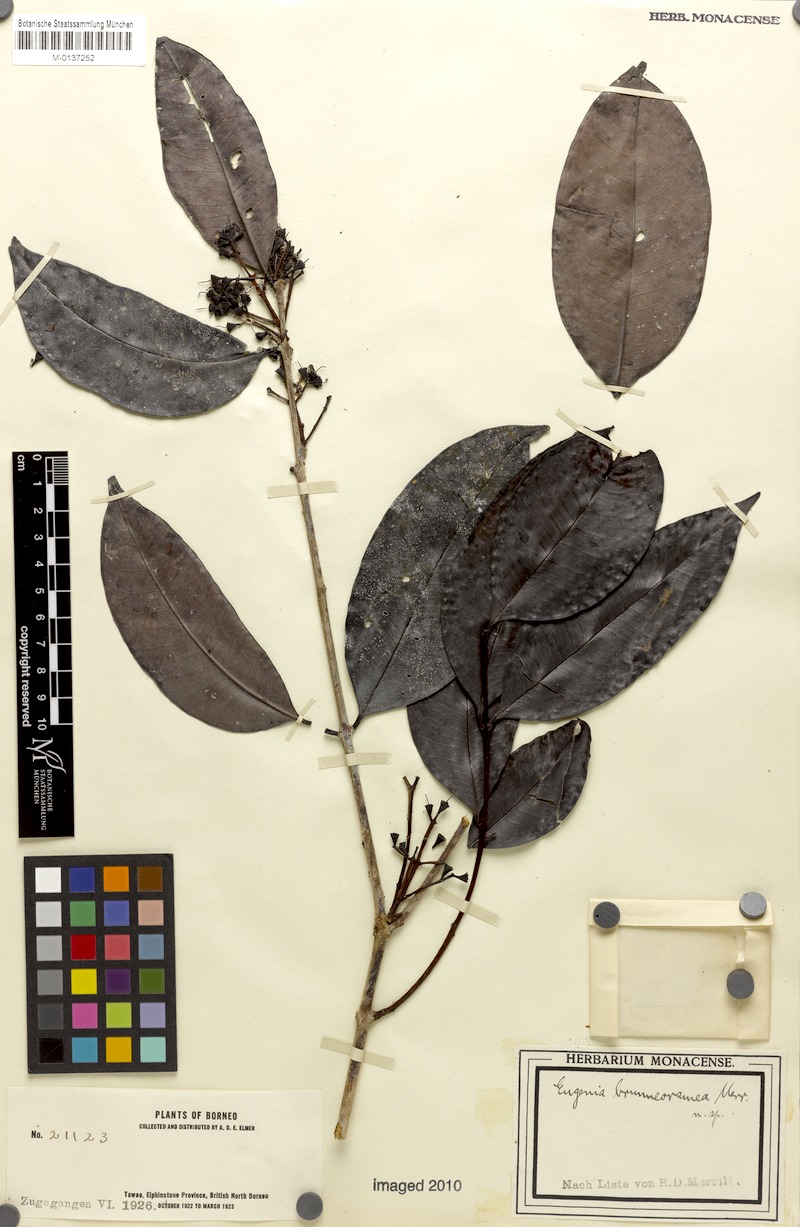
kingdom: Plantae
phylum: Tracheophyta
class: Magnoliopsida
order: Myrtales
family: Myrtaceae
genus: Syzygium
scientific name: Syzygium racemosum
